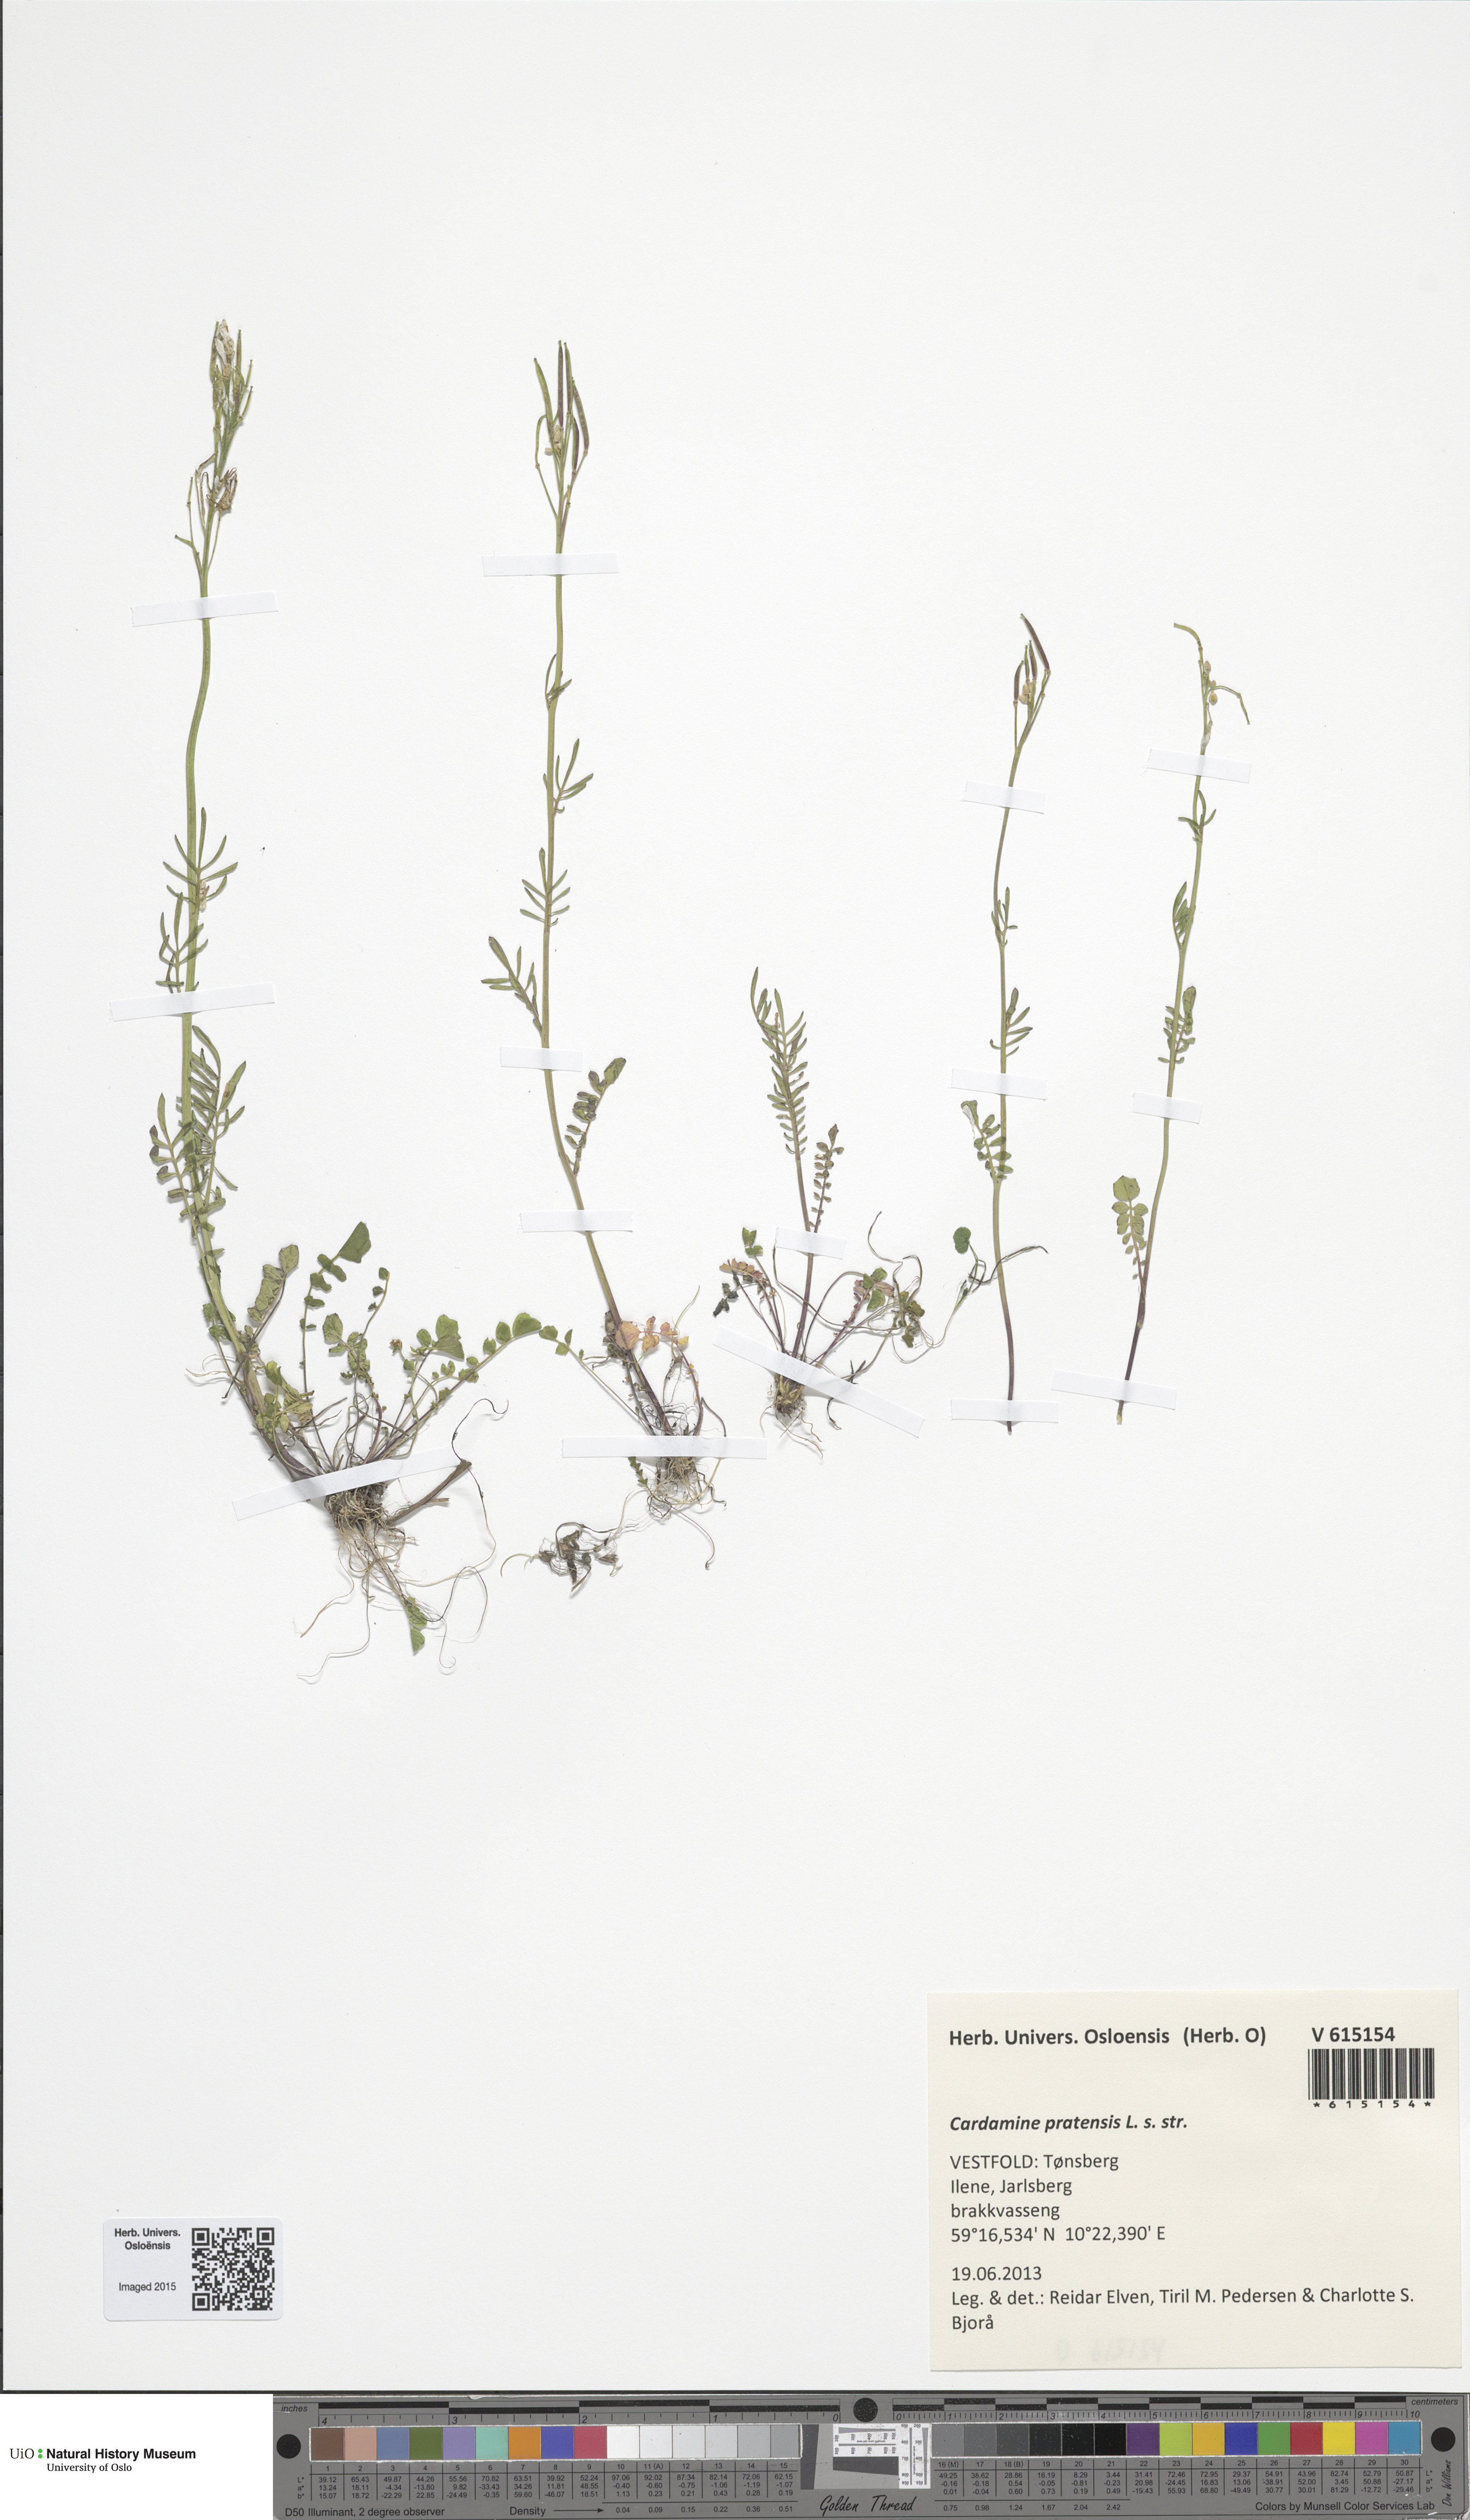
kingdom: Plantae
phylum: Tracheophyta
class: Magnoliopsida
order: Brassicales
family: Brassicaceae
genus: Cardamine
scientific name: Cardamine pratensis
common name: Cuckoo flower
